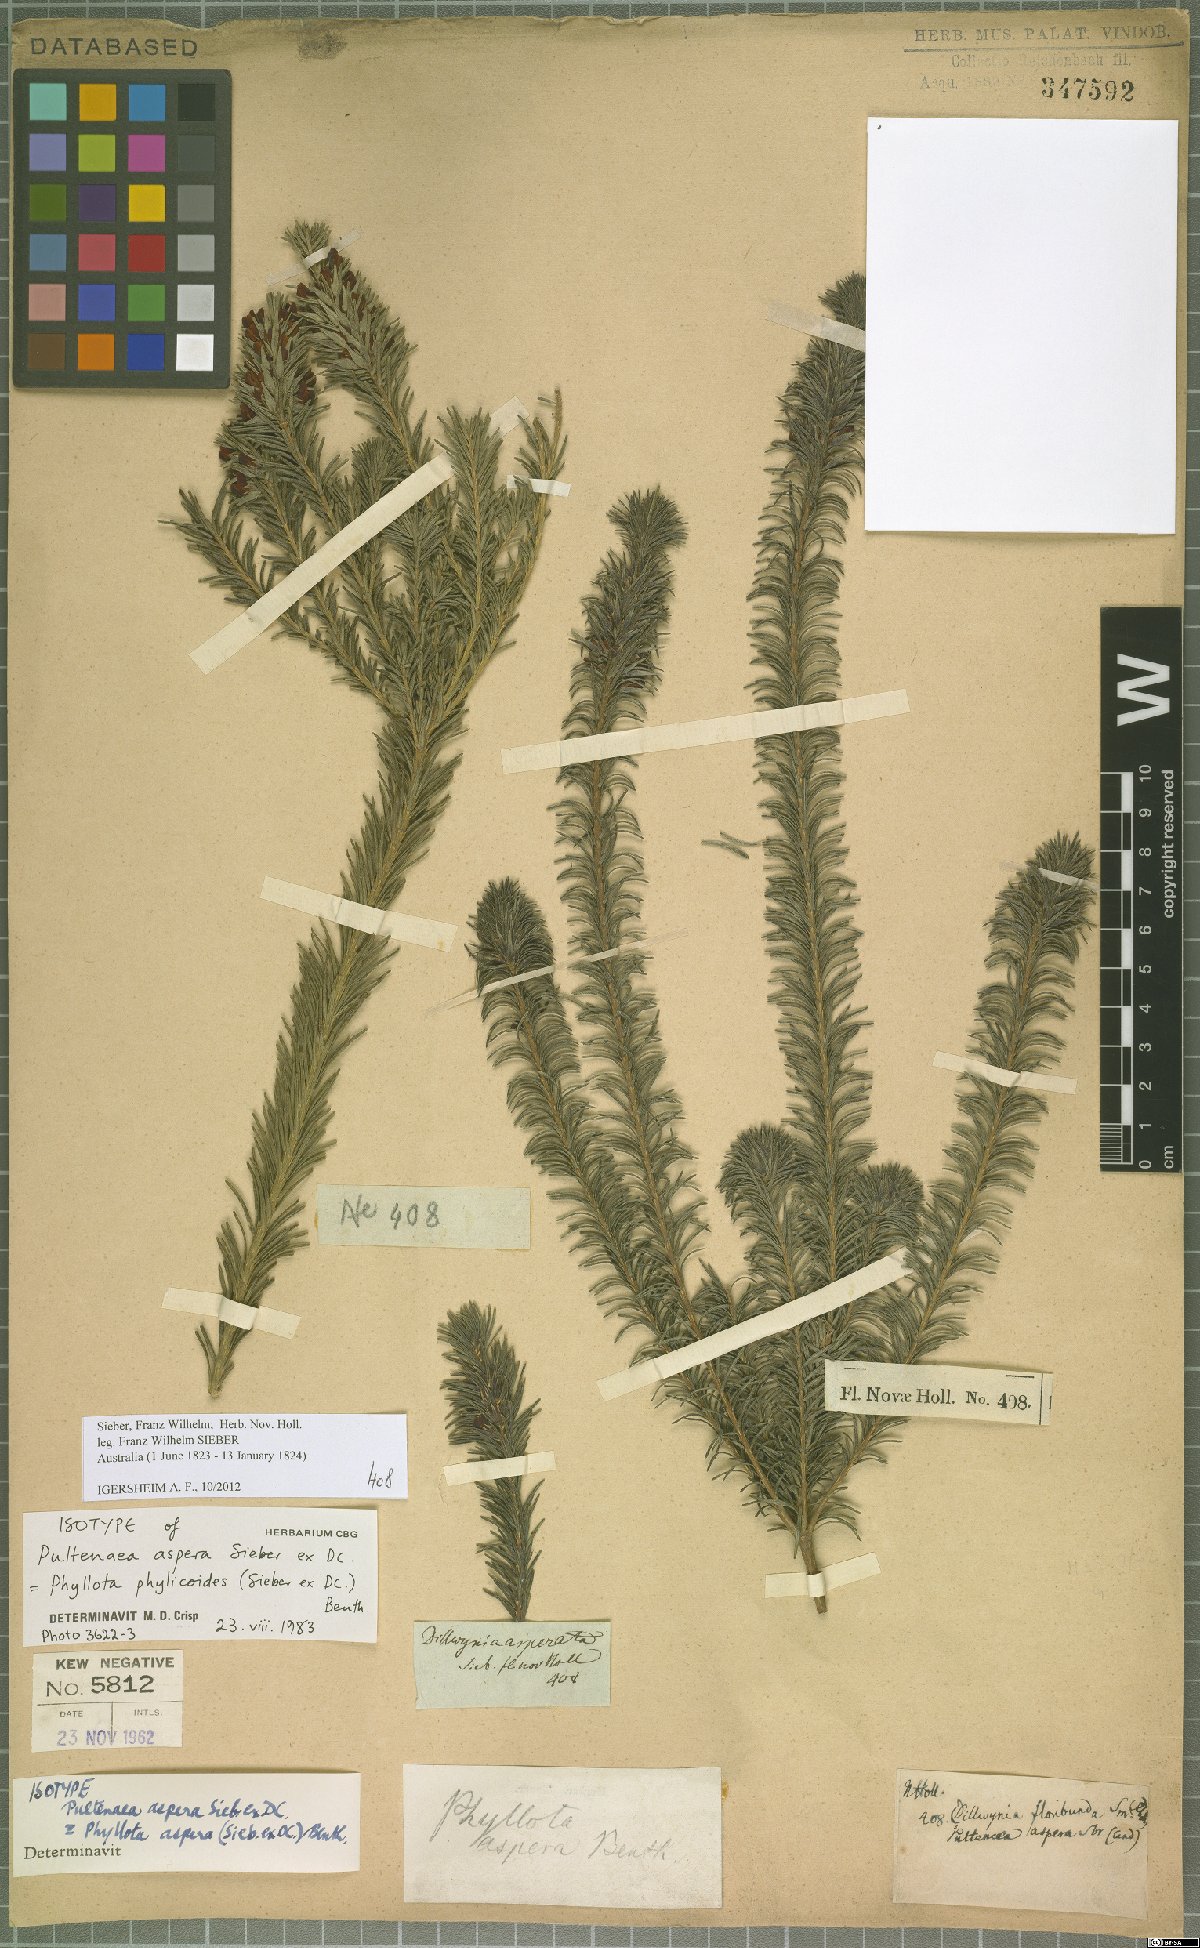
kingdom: Plantae
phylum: Tracheophyta
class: Magnoliopsida
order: Fabales
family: Fabaceae
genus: Phyllota
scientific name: Phyllota phylicoides
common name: Heath phyllota
